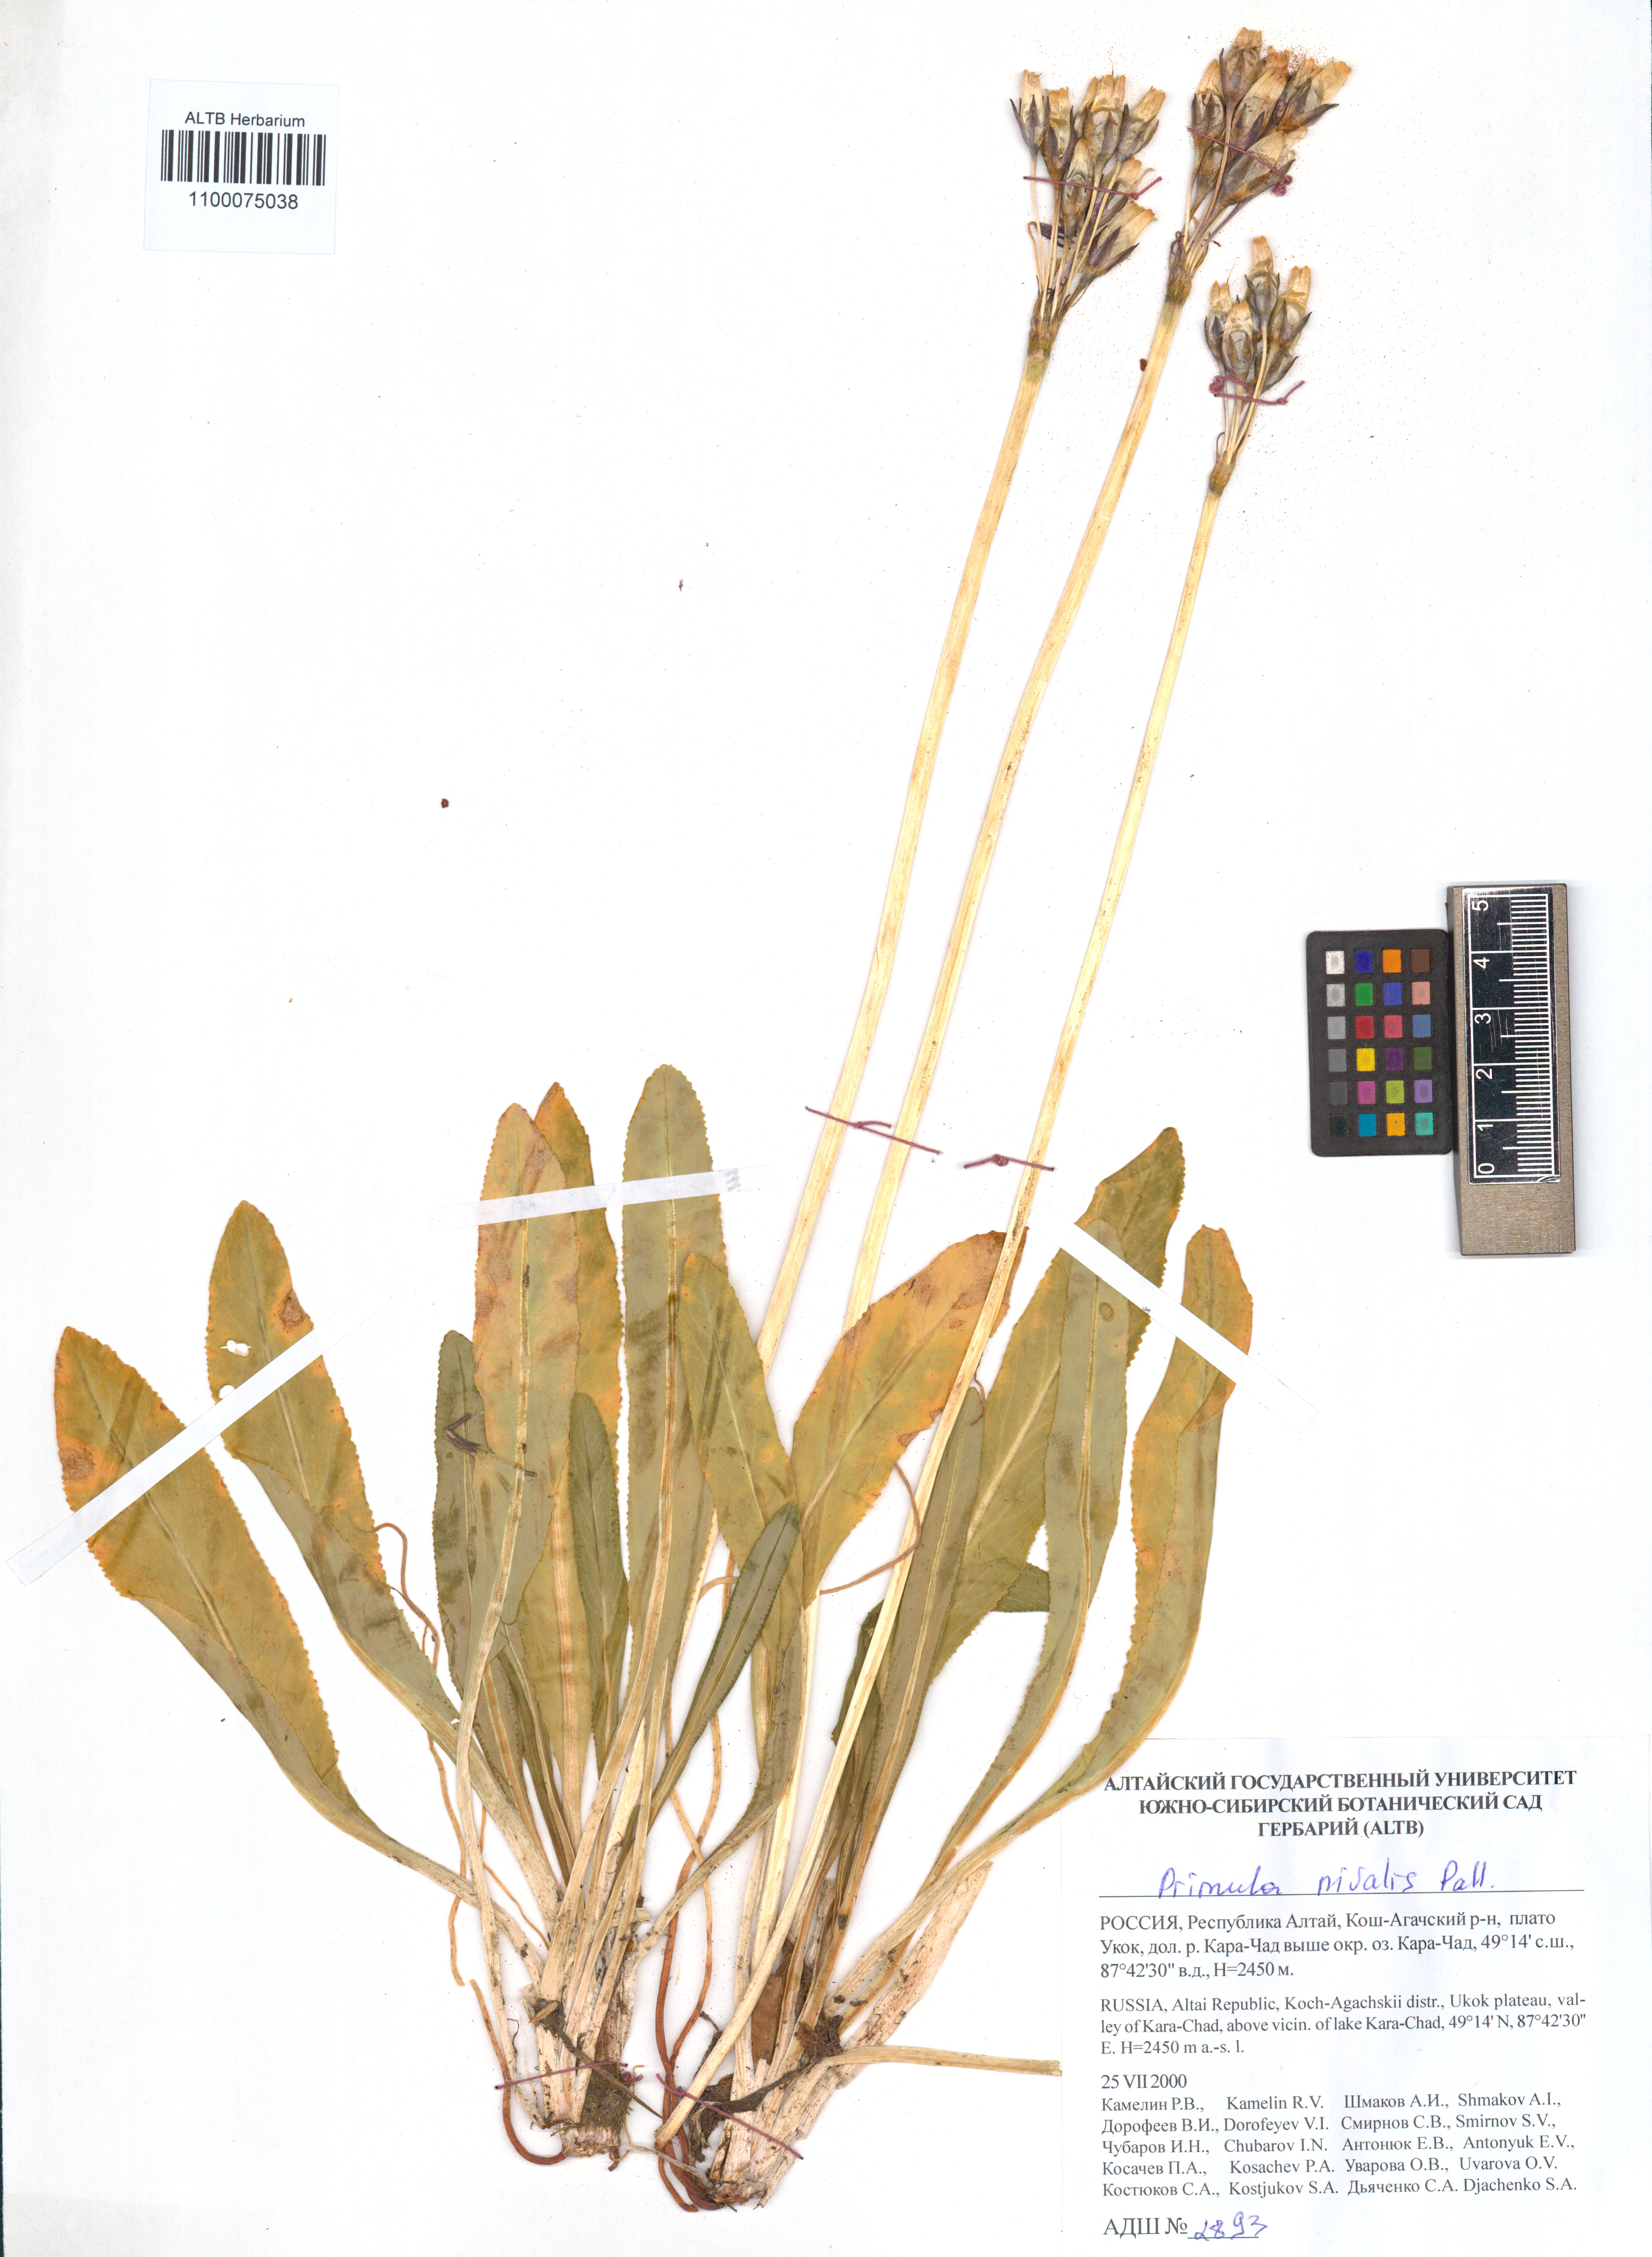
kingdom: Plantae
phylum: Tracheophyta
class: Magnoliopsida
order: Ericales
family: Primulaceae
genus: Primula
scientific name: Primula nivalis
